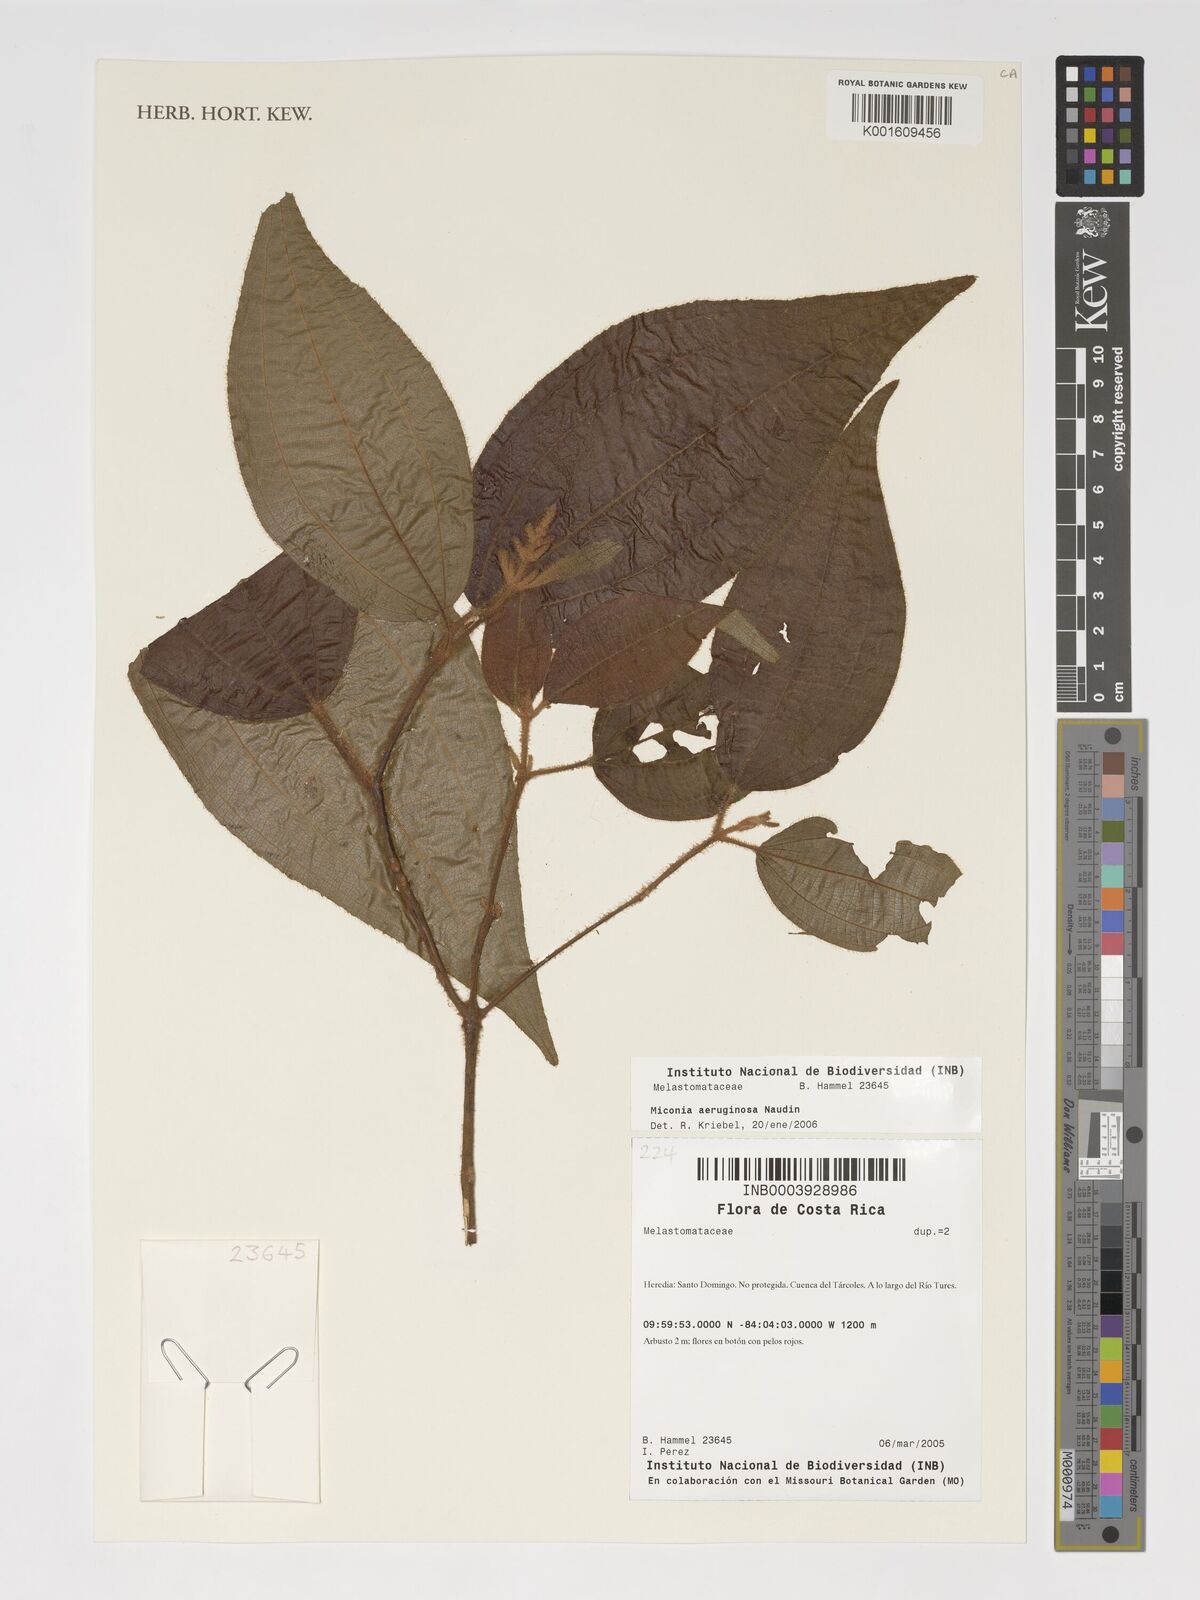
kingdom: Plantae
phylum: Tracheophyta
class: Magnoliopsida
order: Myrtales
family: Melastomataceae
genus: Miconia
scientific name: Miconia aeruginosa
